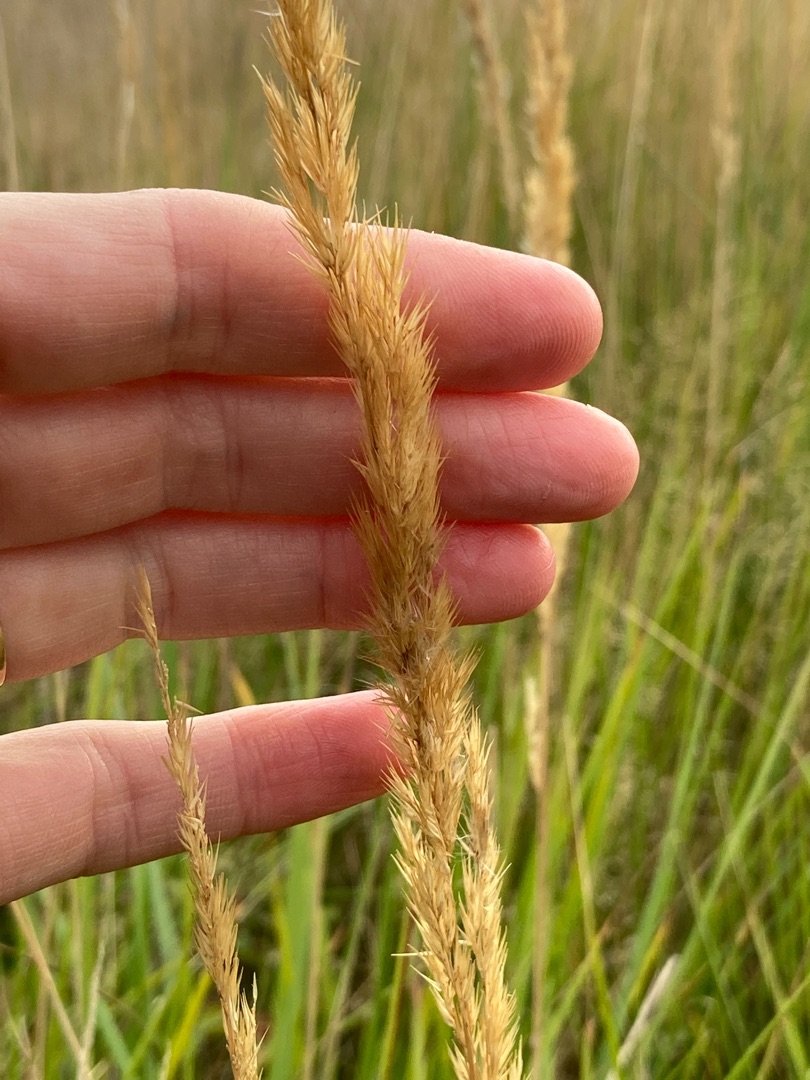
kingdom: Plantae
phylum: Tracheophyta
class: Liliopsida
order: Poales
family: Poaceae
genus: Calamagrostis
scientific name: Calamagrostis epigejos
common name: Bjerg-rørhvene
